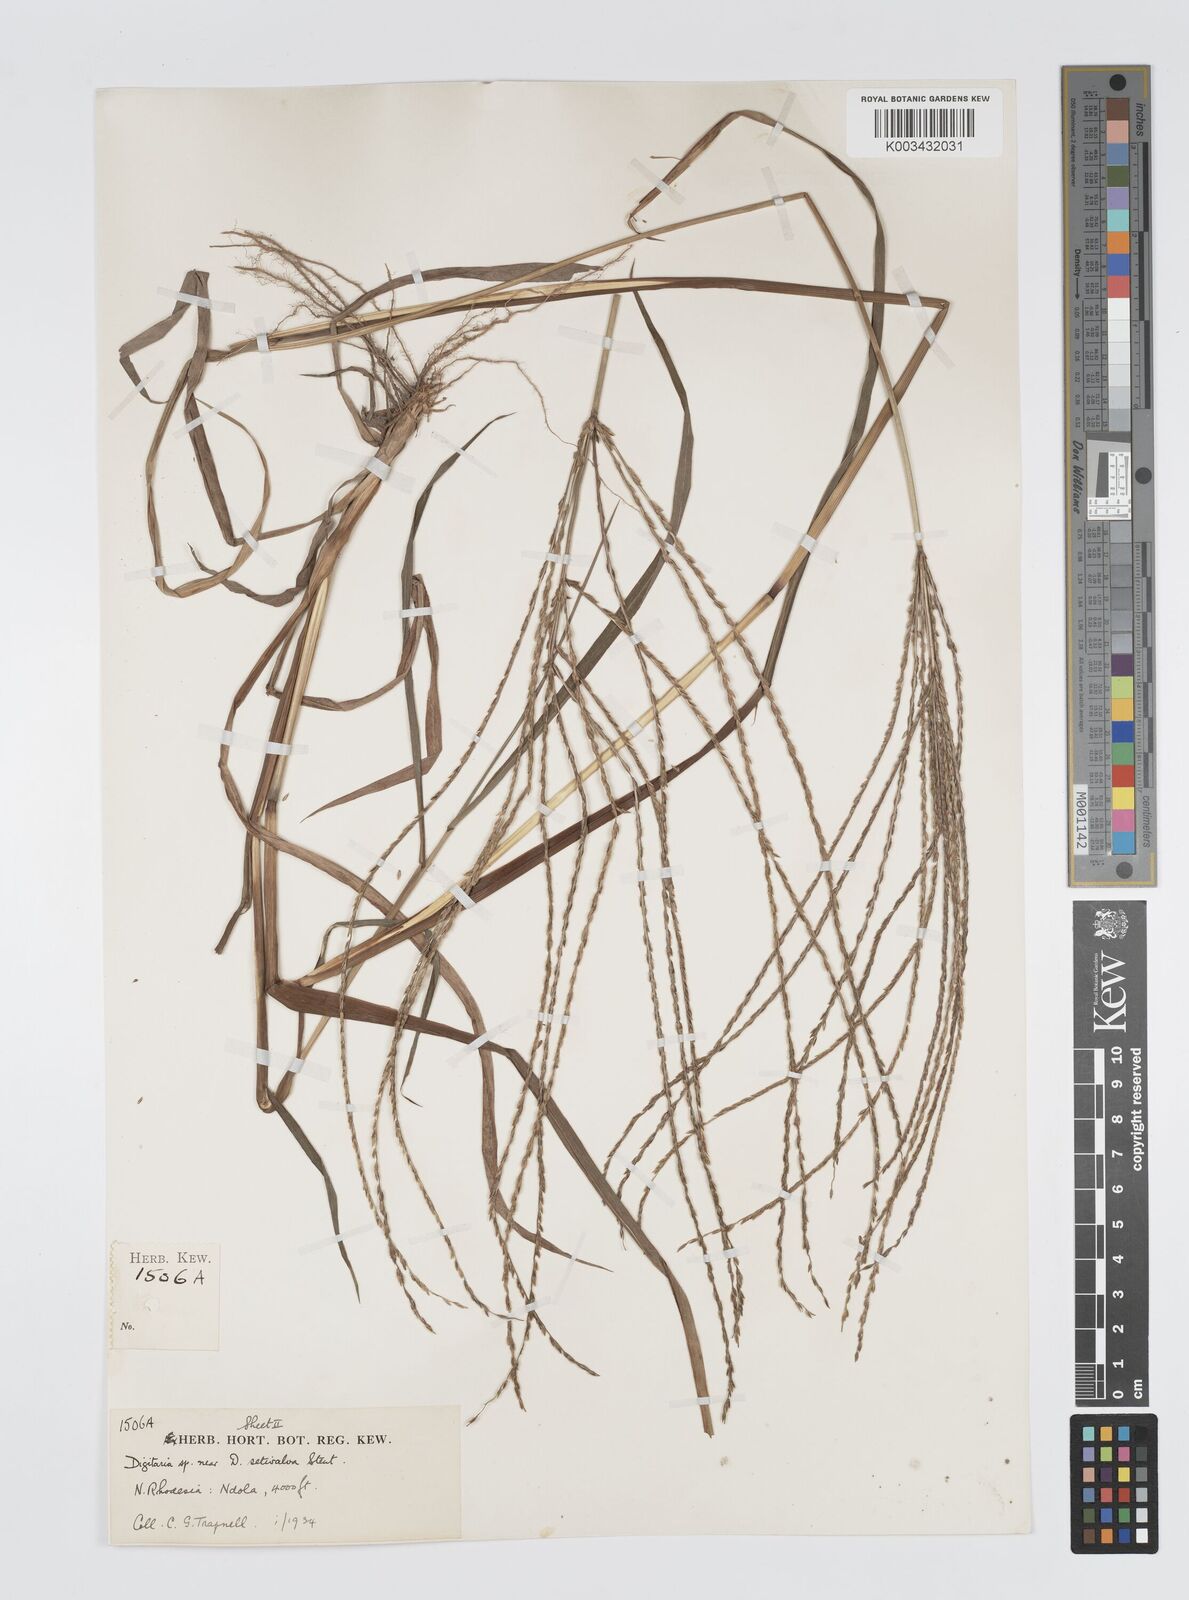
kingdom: Plantae
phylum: Tracheophyta
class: Liliopsida
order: Poales
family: Poaceae
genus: Digitaria
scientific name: Digitaria milanjiana
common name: Madagascar crabgrass
